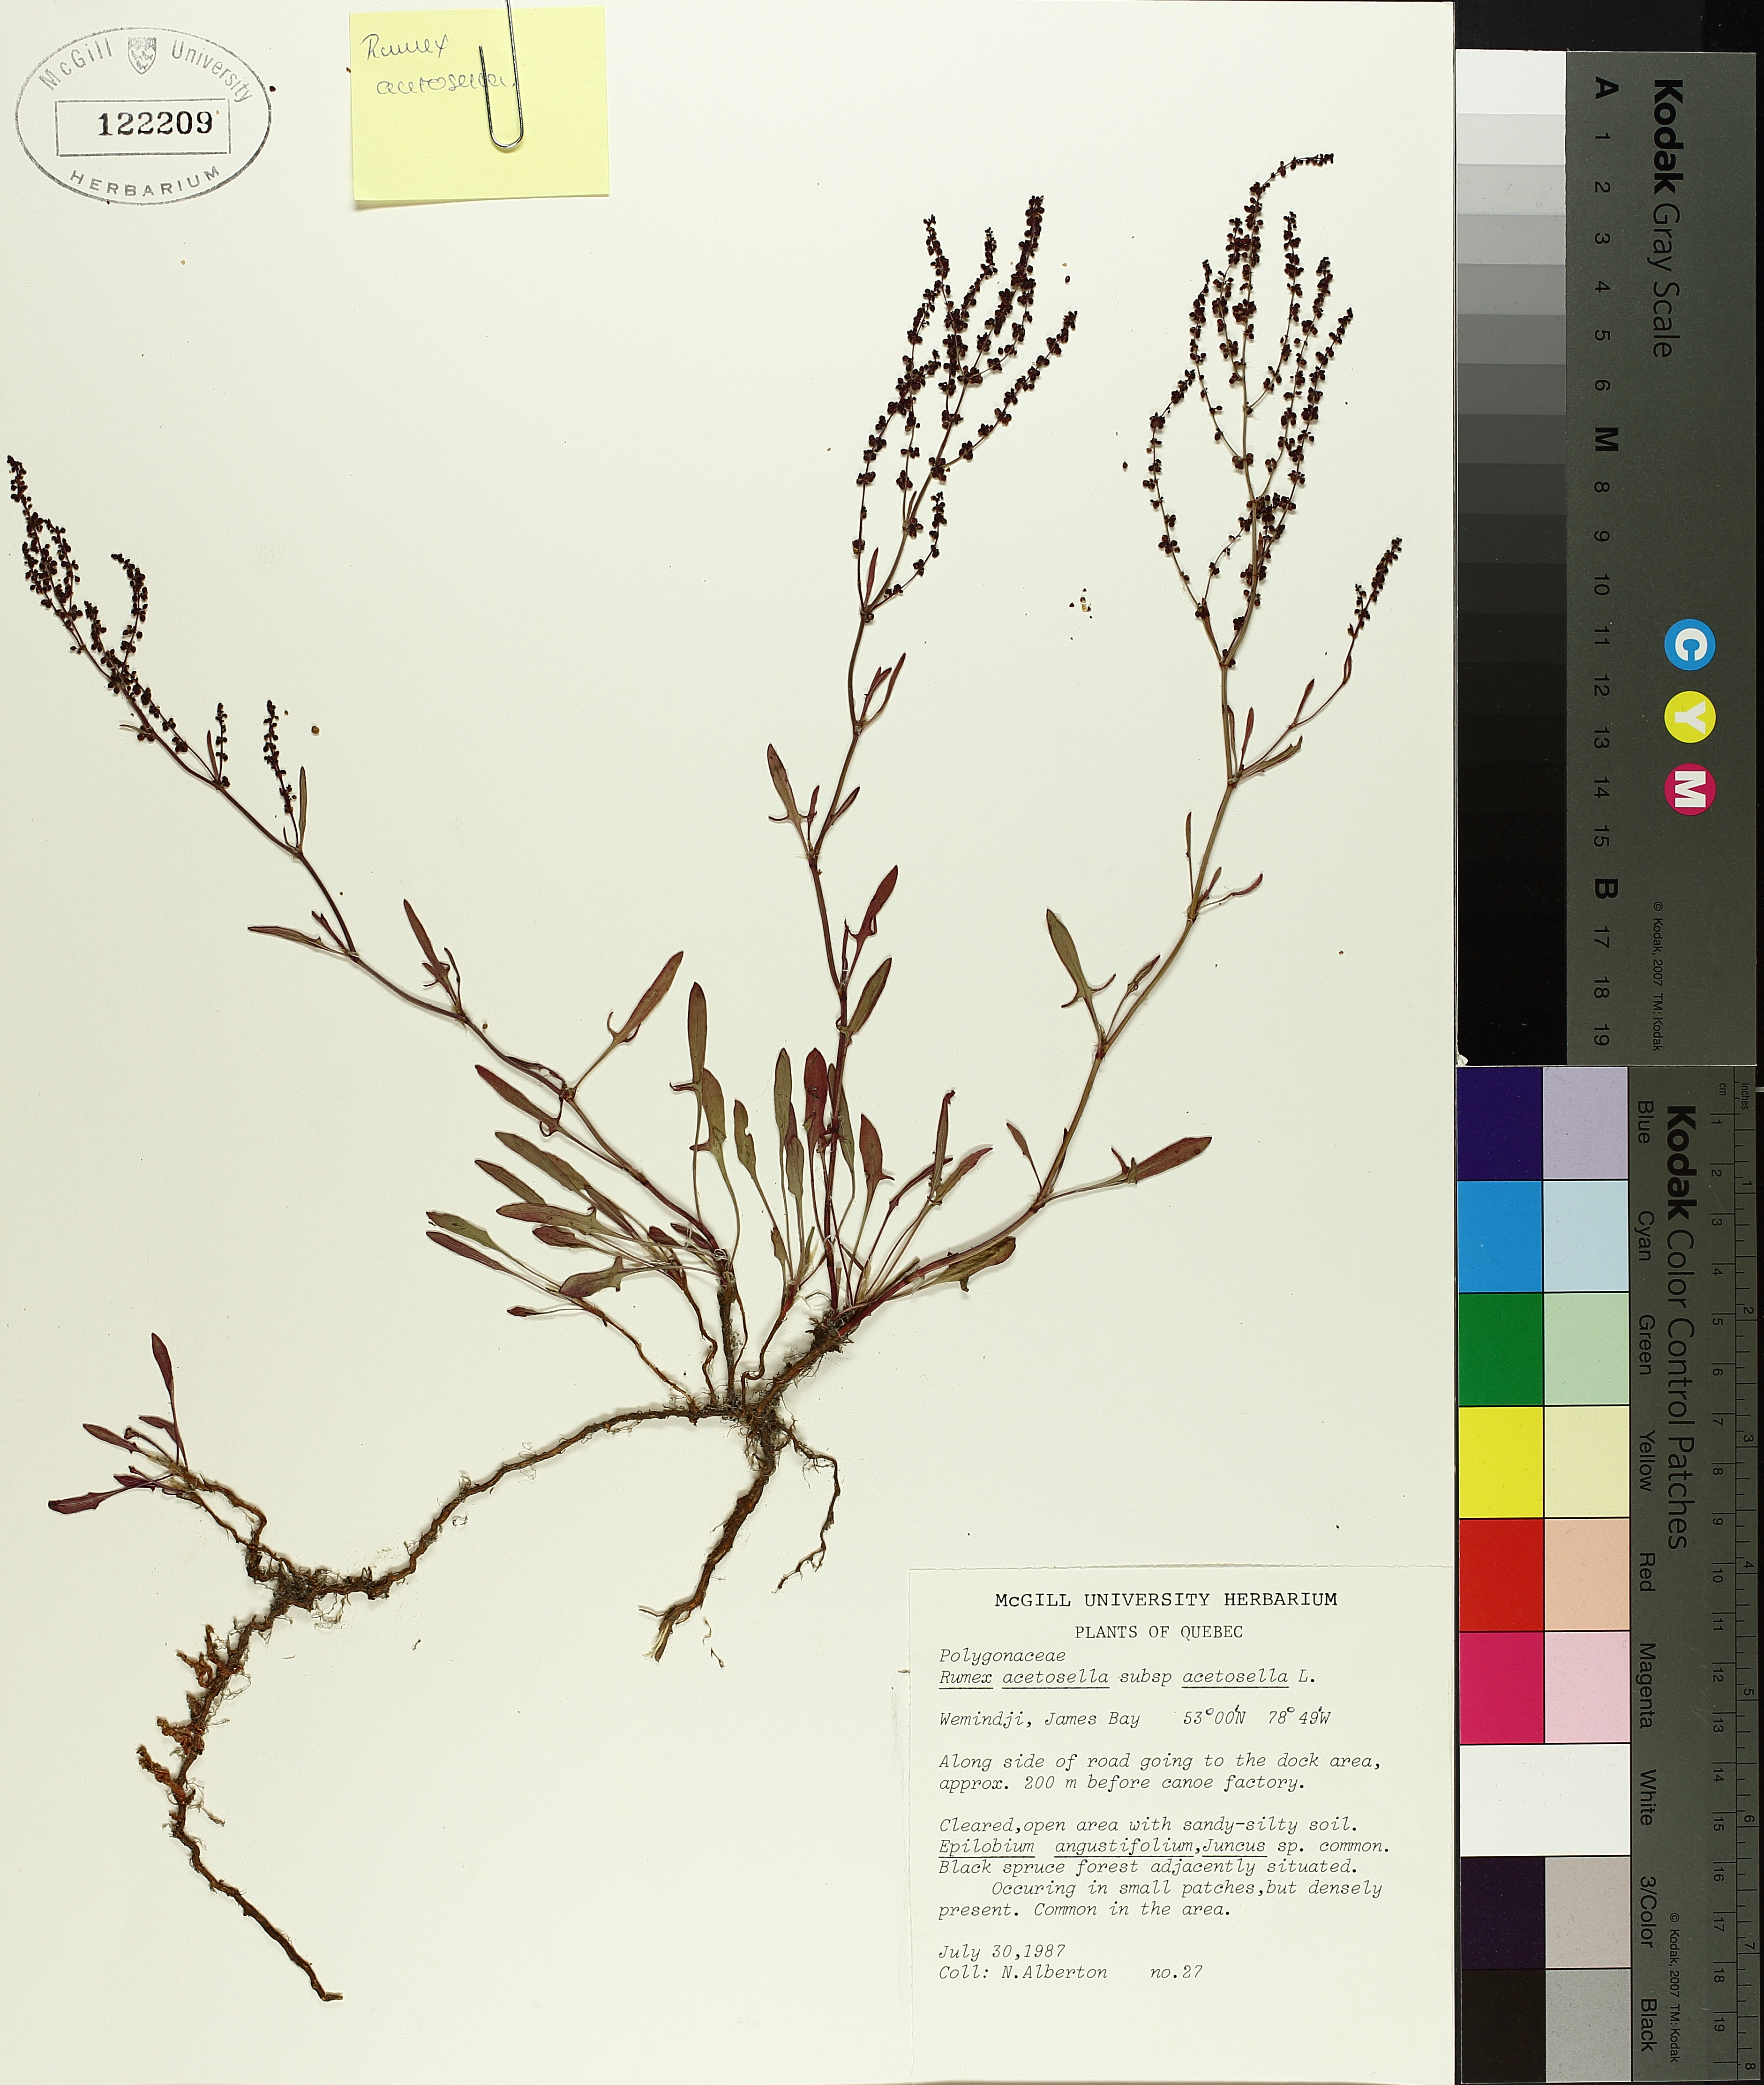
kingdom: Plantae
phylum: Tracheophyta
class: Magnoliopsida
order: Caryophyllales
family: Polygonaceae
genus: Rumex
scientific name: Rumex acetosella
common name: Common sheep sorrel
